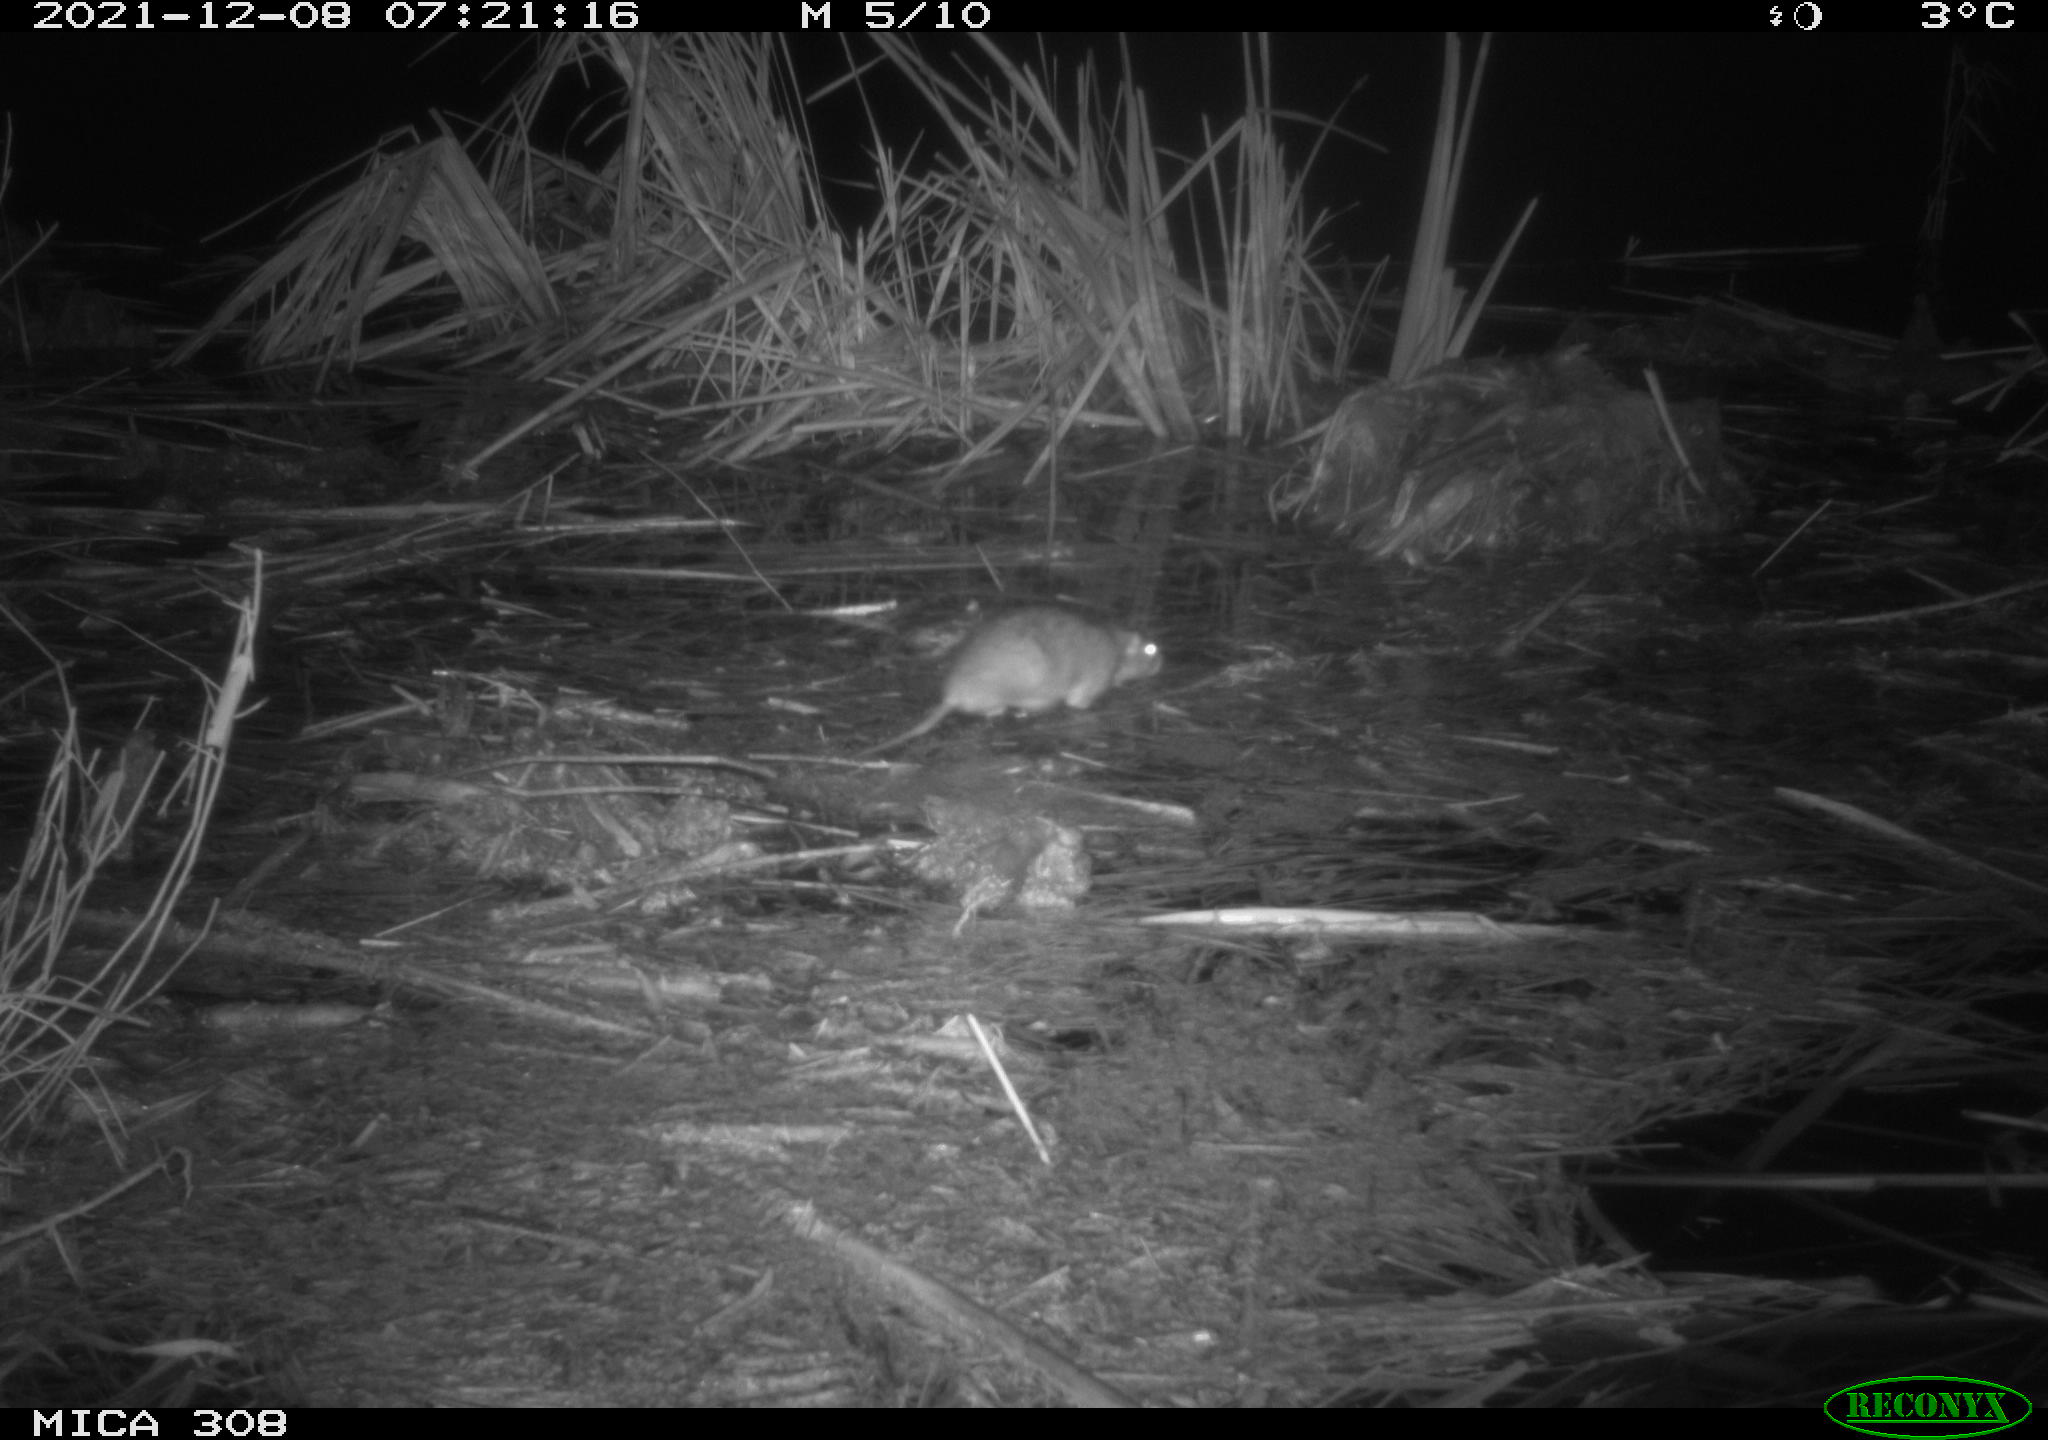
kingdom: Animalia
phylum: Chordata
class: Mammalia
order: Rodentia
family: Muridae
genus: Rattus
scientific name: Rattus norvegicus
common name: Brown rat
